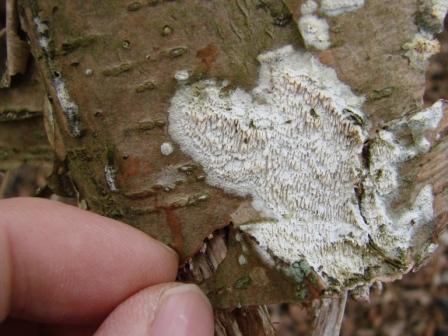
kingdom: Fungi
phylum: Basidiomycota
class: Agaricomycetes
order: Hymenochaetales
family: Schizoporaceae
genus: Schizopora
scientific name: Schizopora paradoxa
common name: hvid tandsvamp
